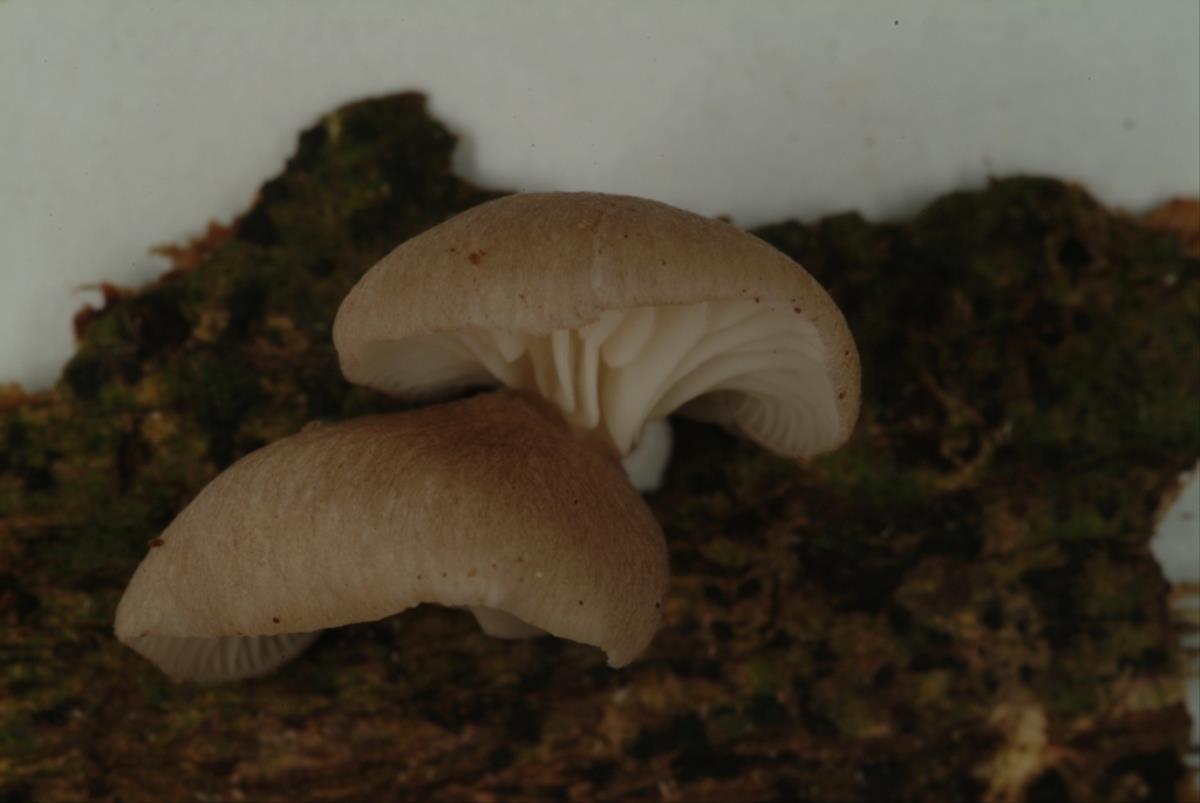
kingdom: Fungi
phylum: Basidiomycota
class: Agaricomycetes
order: Agaricales
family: Pleurotaceae
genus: Pleurotus
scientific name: Pleurotus djamor
